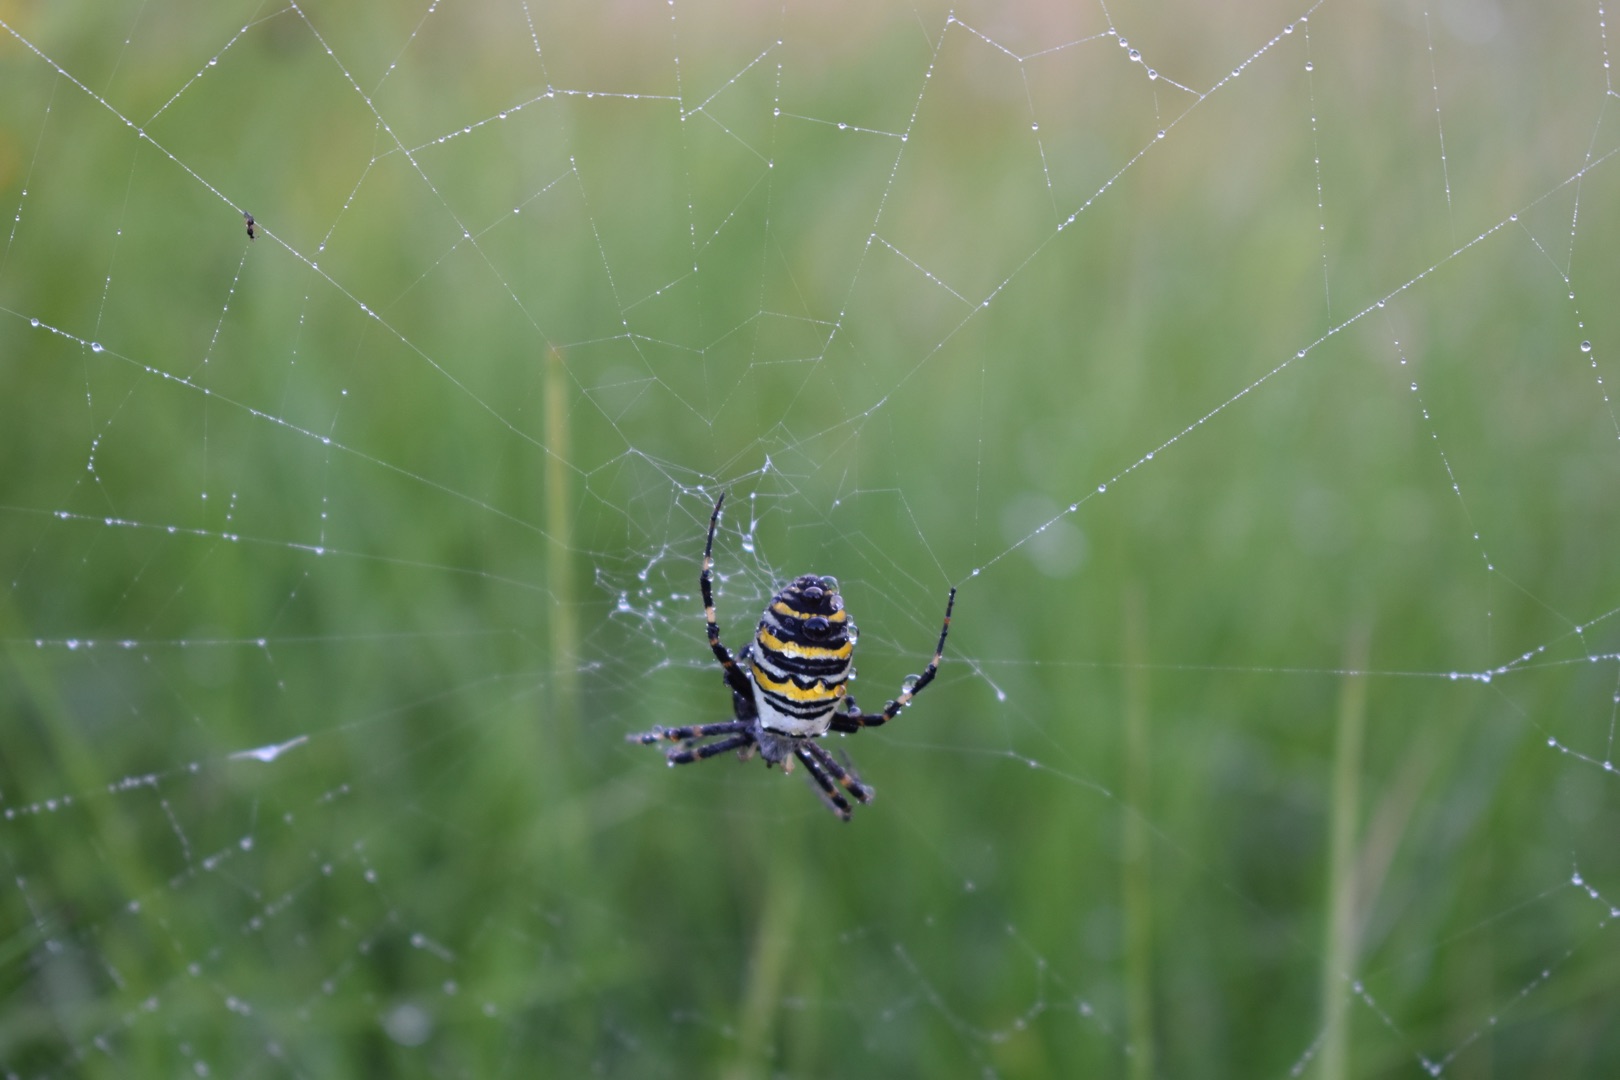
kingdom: Animalia
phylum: Arthropoda
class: Arachnida
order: Araneae
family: Araneidae
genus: Argiope
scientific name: Argiope bruennichi
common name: Hvepseedderkop
